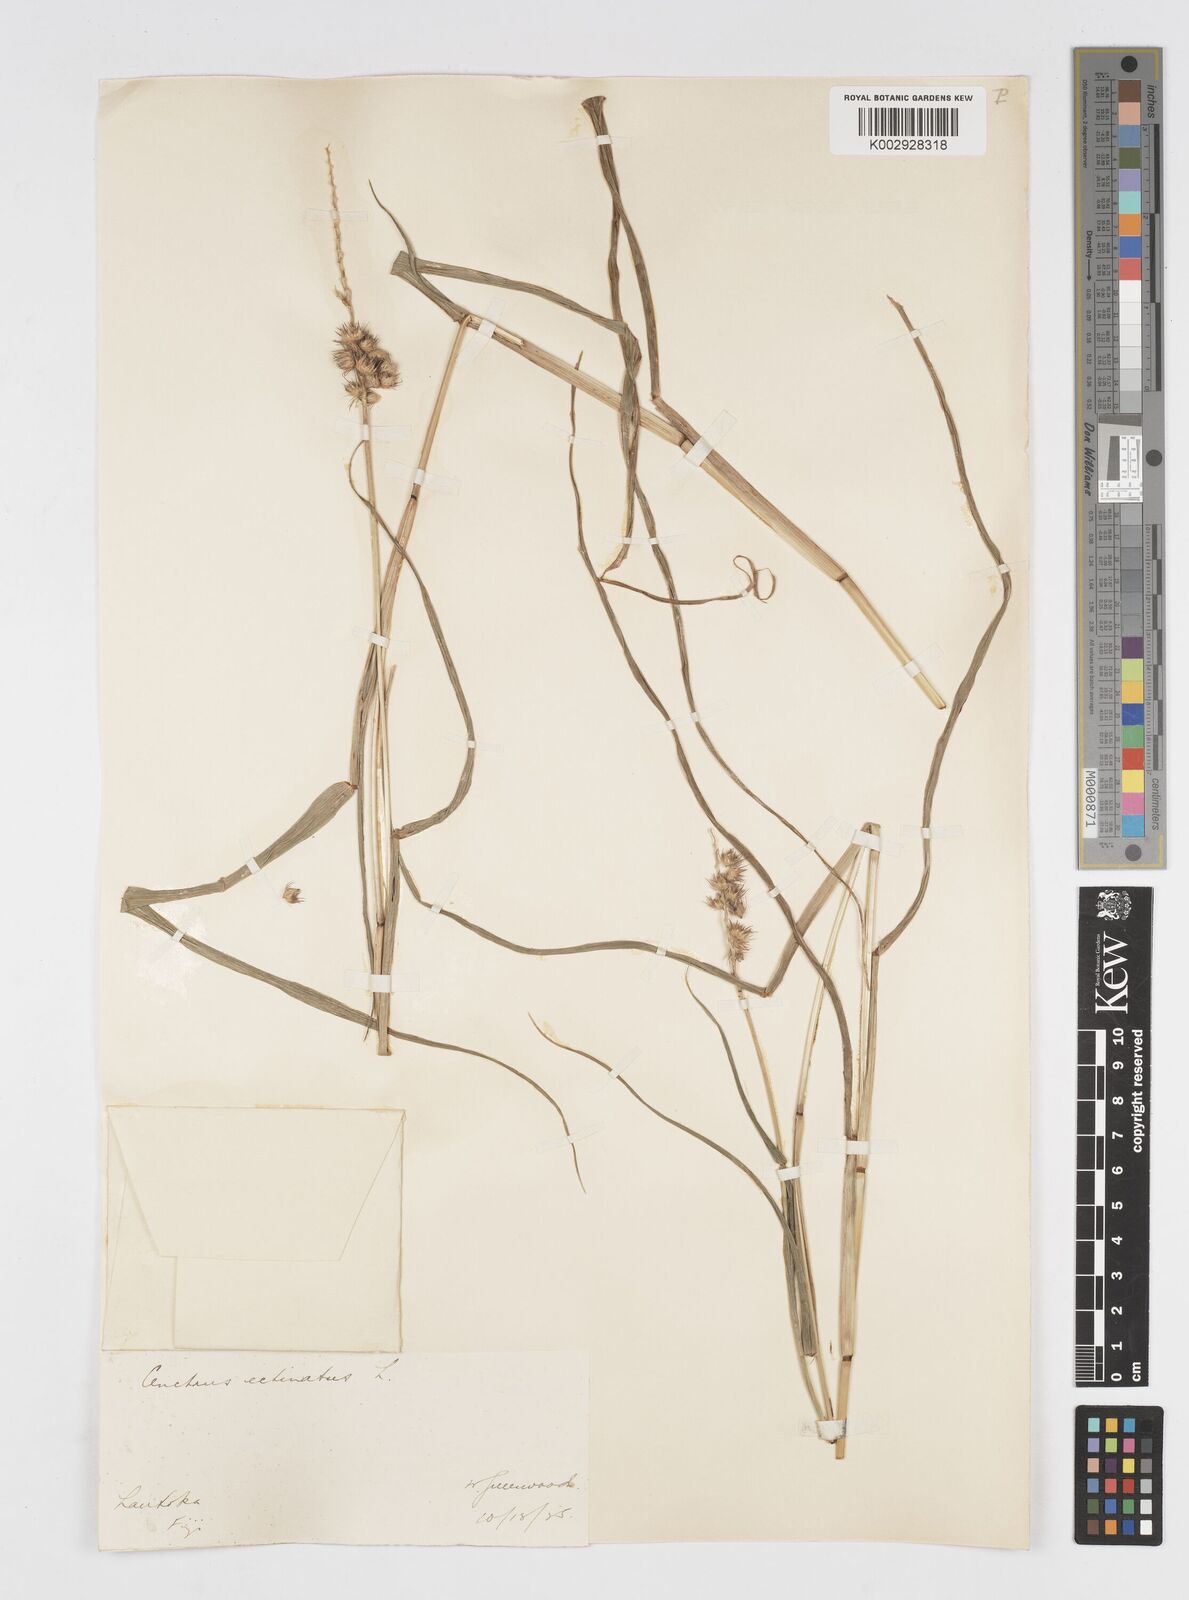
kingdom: Plantae
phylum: Tracheophyta
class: Liliopsida
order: Poales
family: Poaceae
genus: Cenchrus
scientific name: Cenchrus echinatus
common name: Southern sandbur
